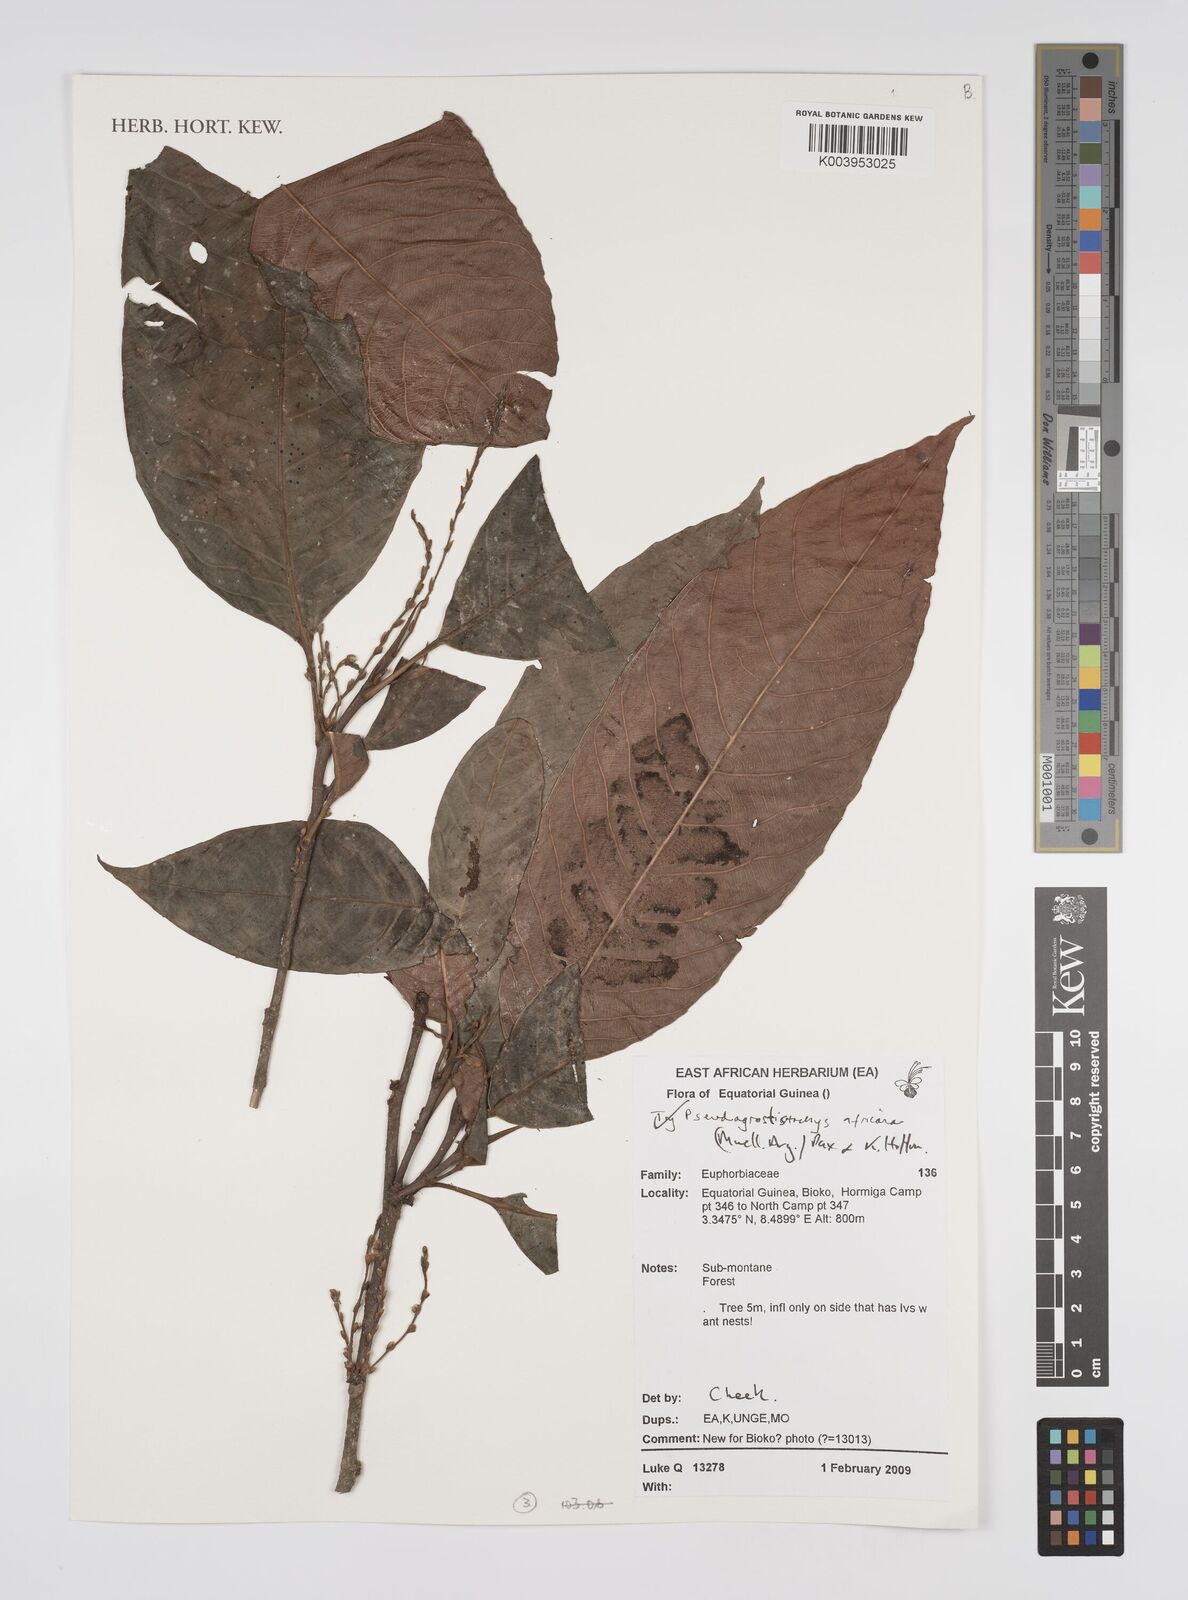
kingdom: Plantae
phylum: Tracheophyta
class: Magnoliopsida
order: Malpighiales
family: Euphorbiaceae
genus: Pseudagrostistachys
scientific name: Pseudagrostistachys africana
